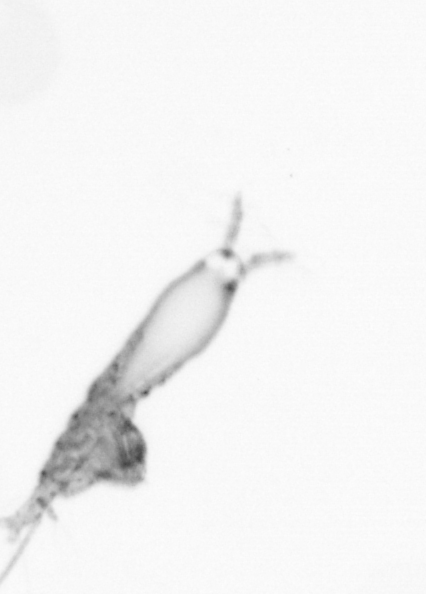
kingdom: Animalia
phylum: Arthropoda
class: Copepoda
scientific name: Copepoda
